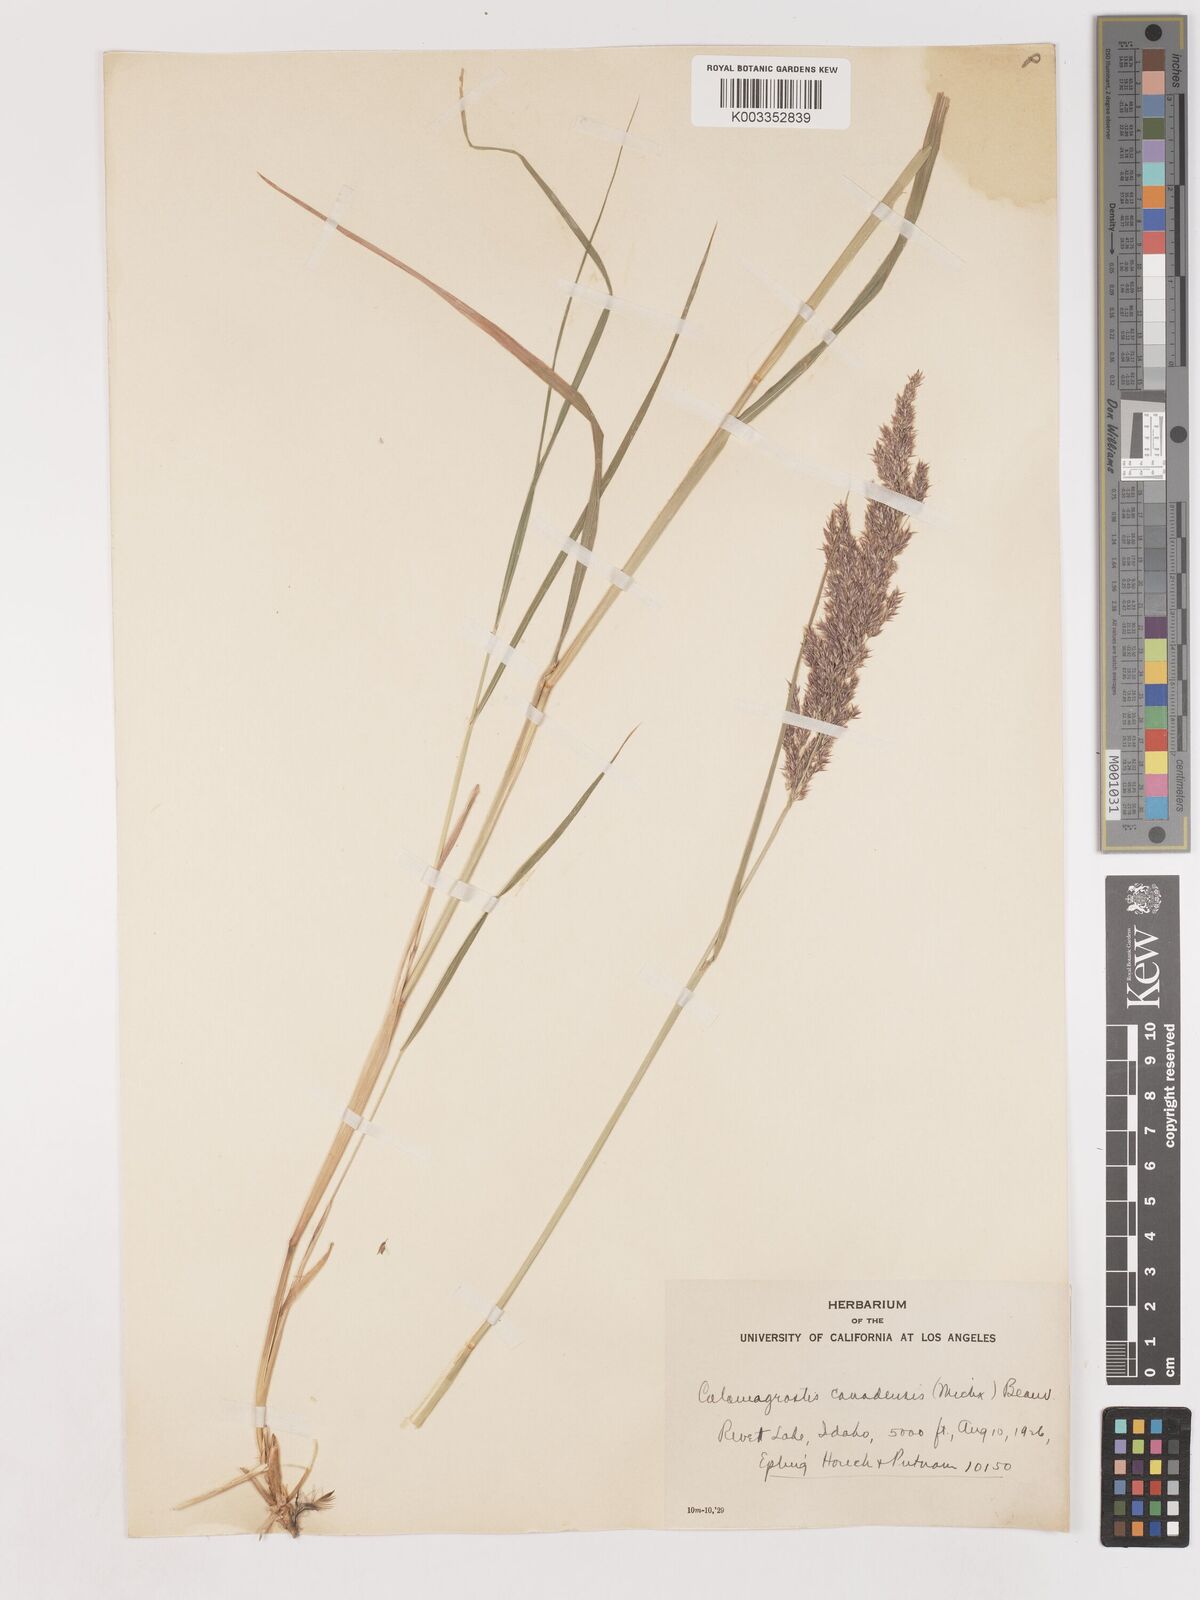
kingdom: Plantae
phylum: Tracheophyta
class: Liliopsida
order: Poales
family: Poaceae
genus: Calamagrostis
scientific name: Calamagrostis canadensis
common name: Canada bluejoint
